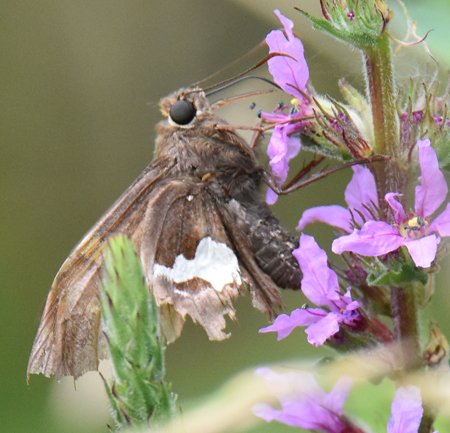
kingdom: Animalia
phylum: Arthropoda
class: Insecta
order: Lepidoptera
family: Hesperiidae
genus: Epargyreus
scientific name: Epargyreus clarus
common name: Silver-spotted Skipper
